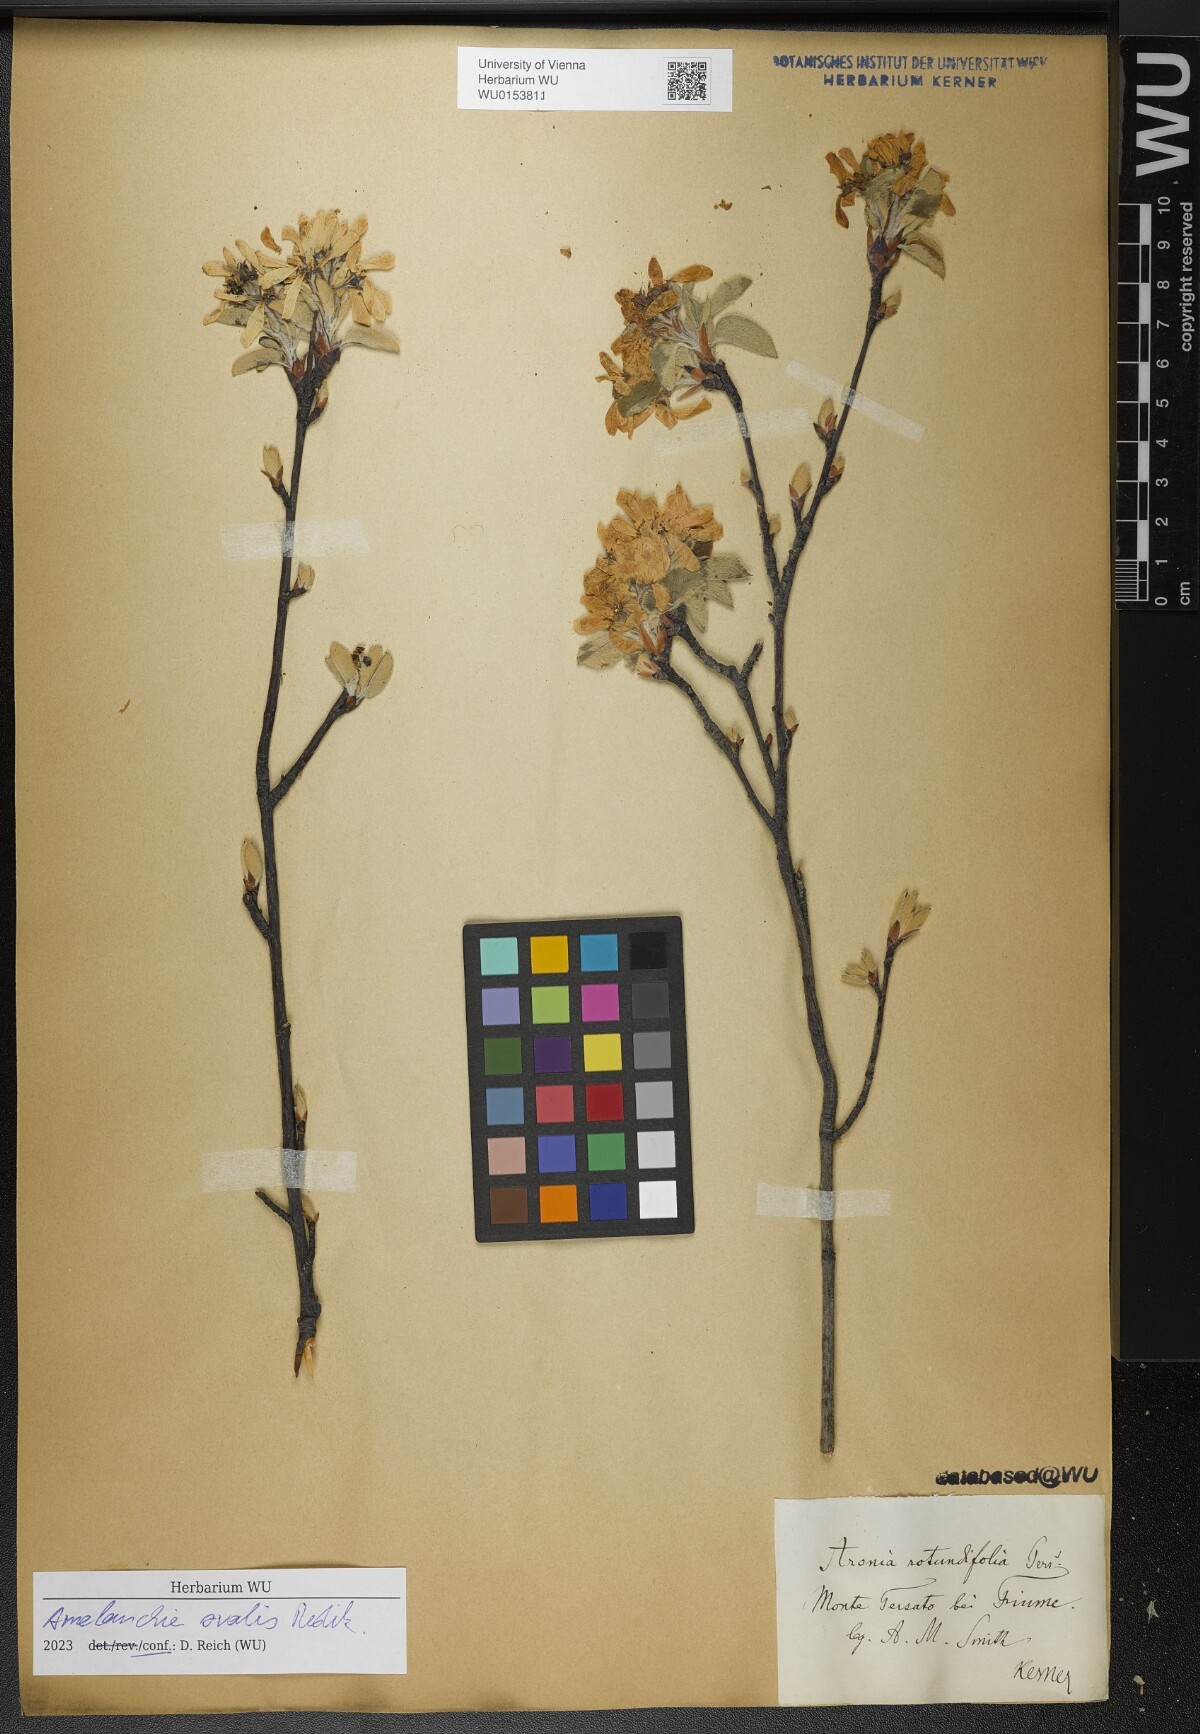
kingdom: Plantae
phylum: Tracheophyta
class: Magnoliopsida
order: Rosales
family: Rosaceae
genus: Amelanchier
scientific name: Amelanchier ovalis
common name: Serviceberry
